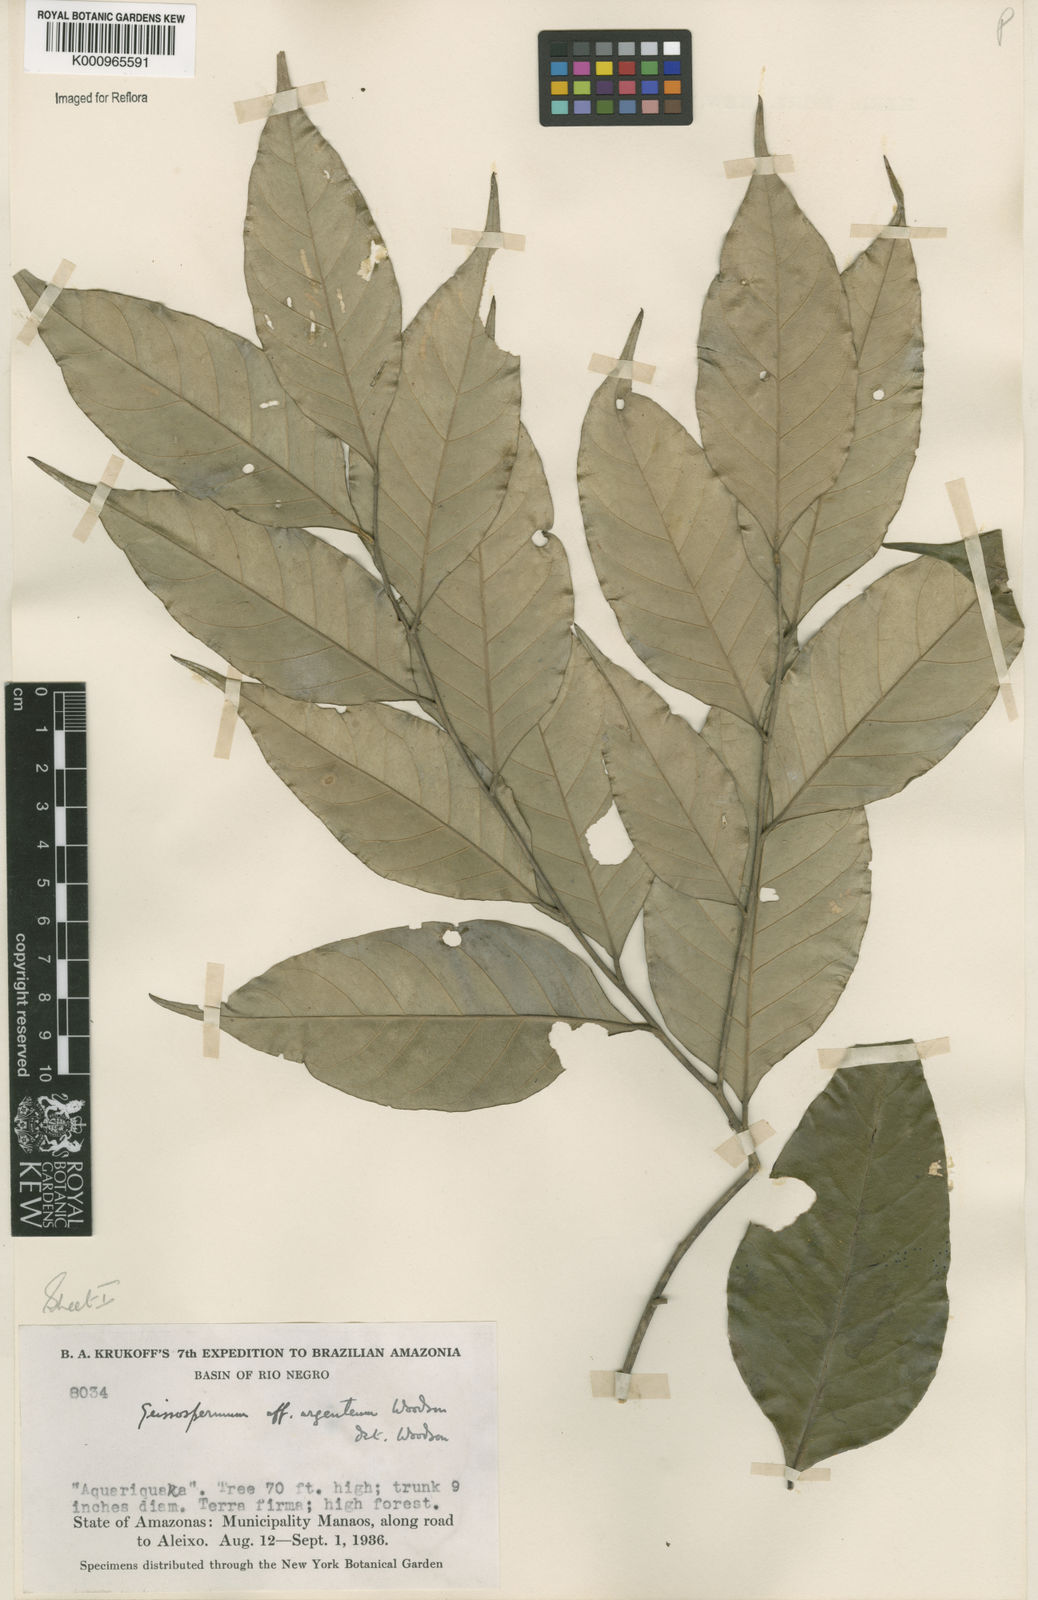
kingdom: Plantae
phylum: Tracheophyta
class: Magnoliopsida
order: Gentianales
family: Apocynaceae
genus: Geissospermum
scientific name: Geissospermum argenteum
